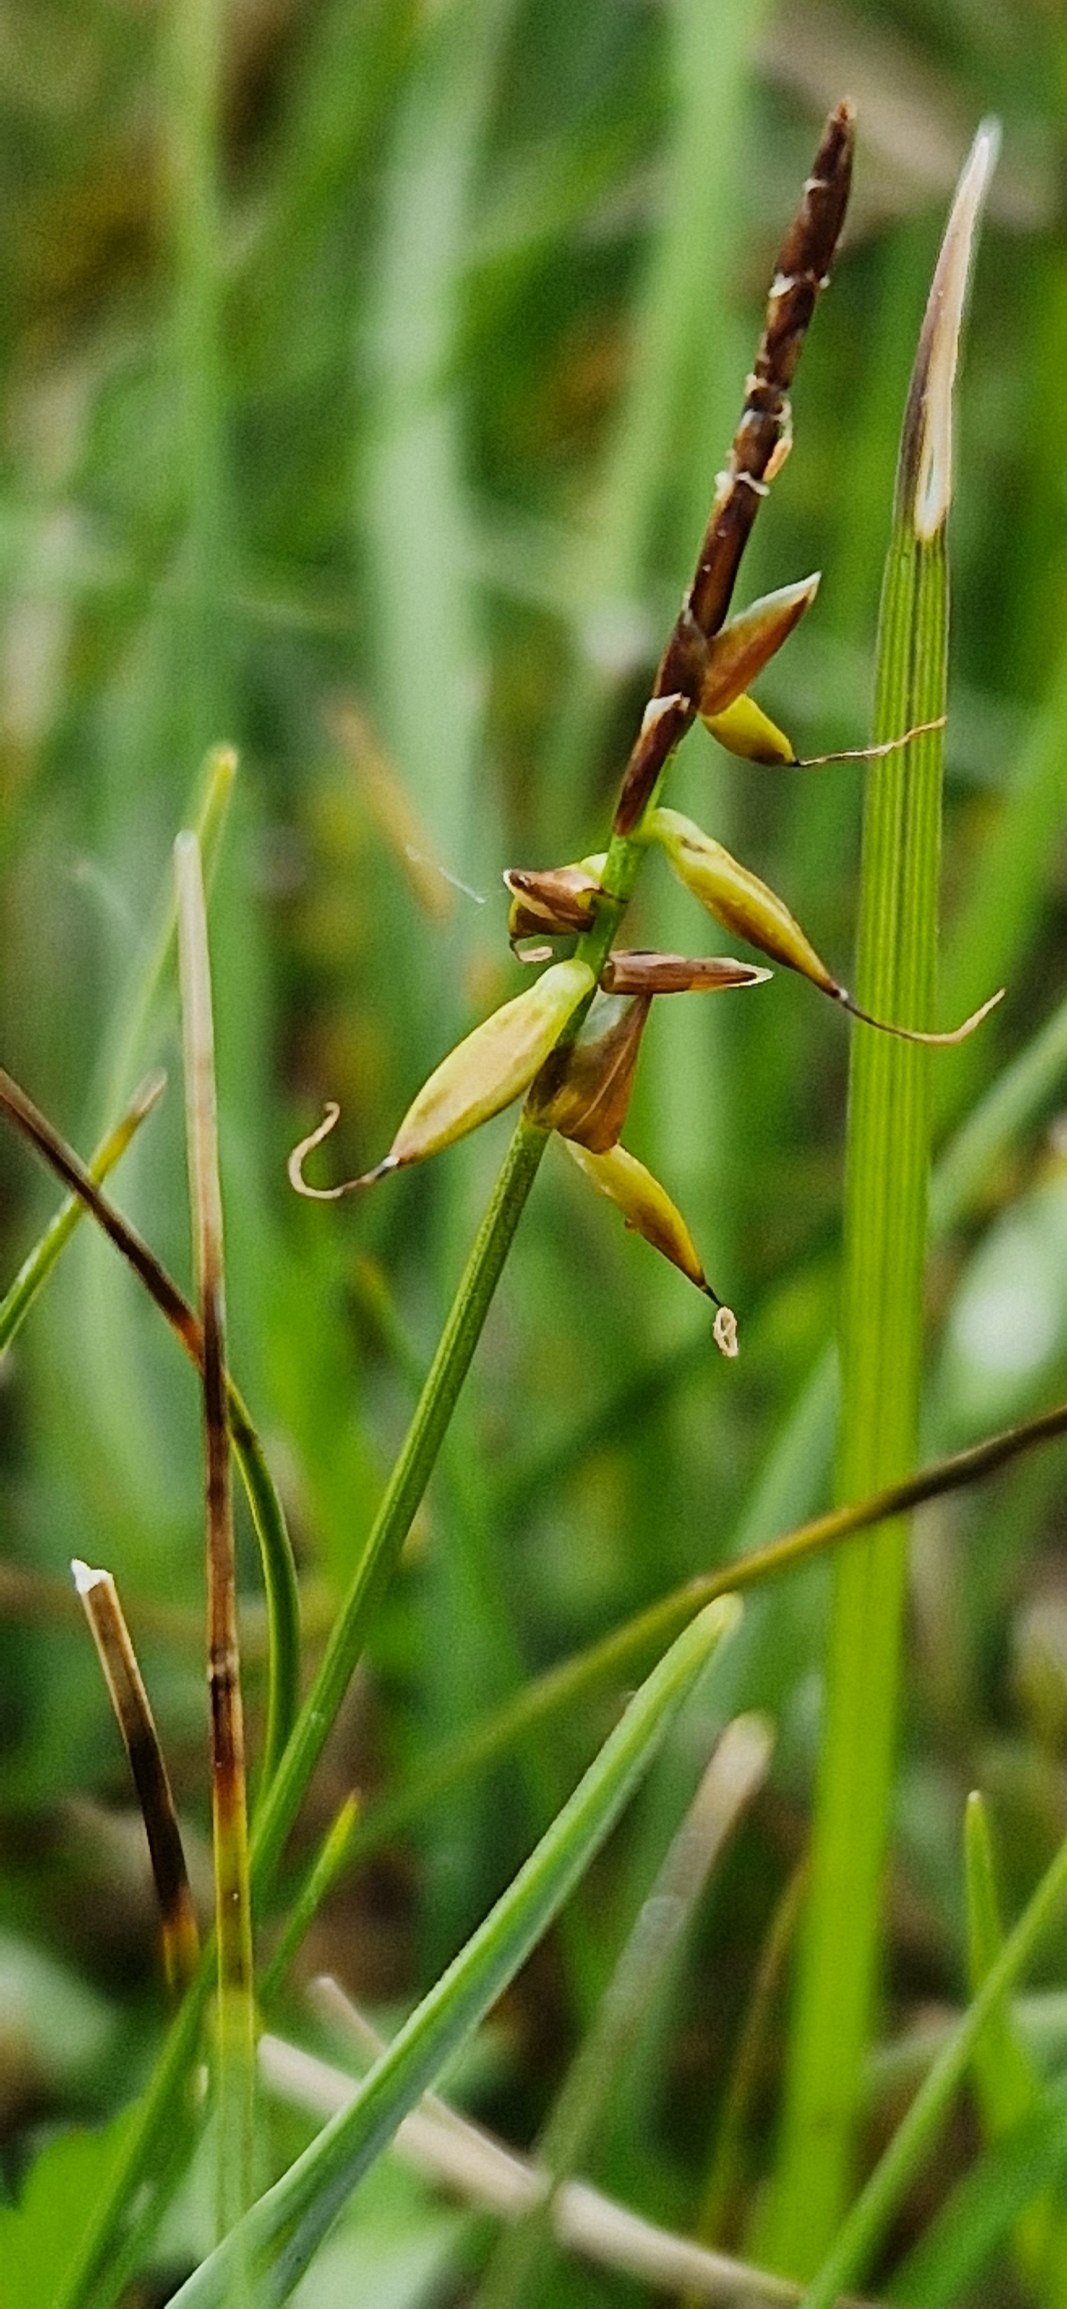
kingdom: Plantae
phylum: Tracheophyta
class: Liliopsida
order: Poales
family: Cyperaceae
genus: Carex
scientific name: Carex pulicaris
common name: Loppe-star
